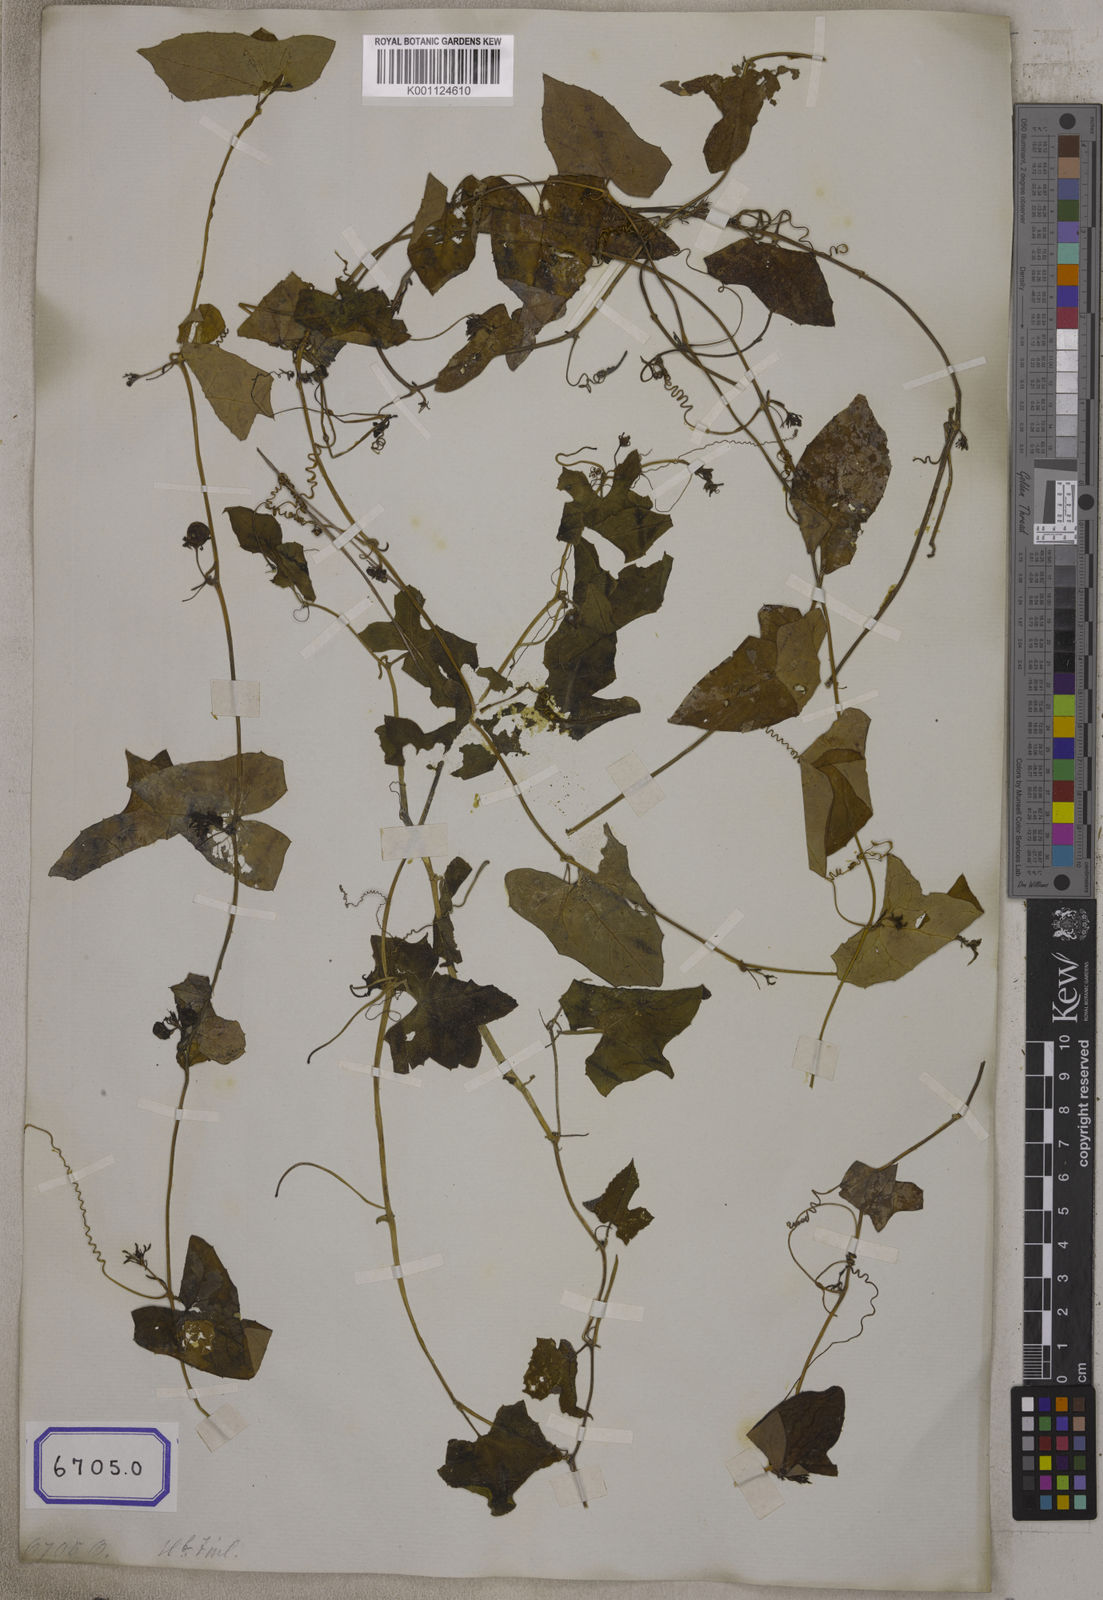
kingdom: Plantae
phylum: Tracheophyta
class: Magnoliopsida
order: Cucurbitales
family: Cucurbitaceae
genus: Bryonia
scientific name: Bryonia
